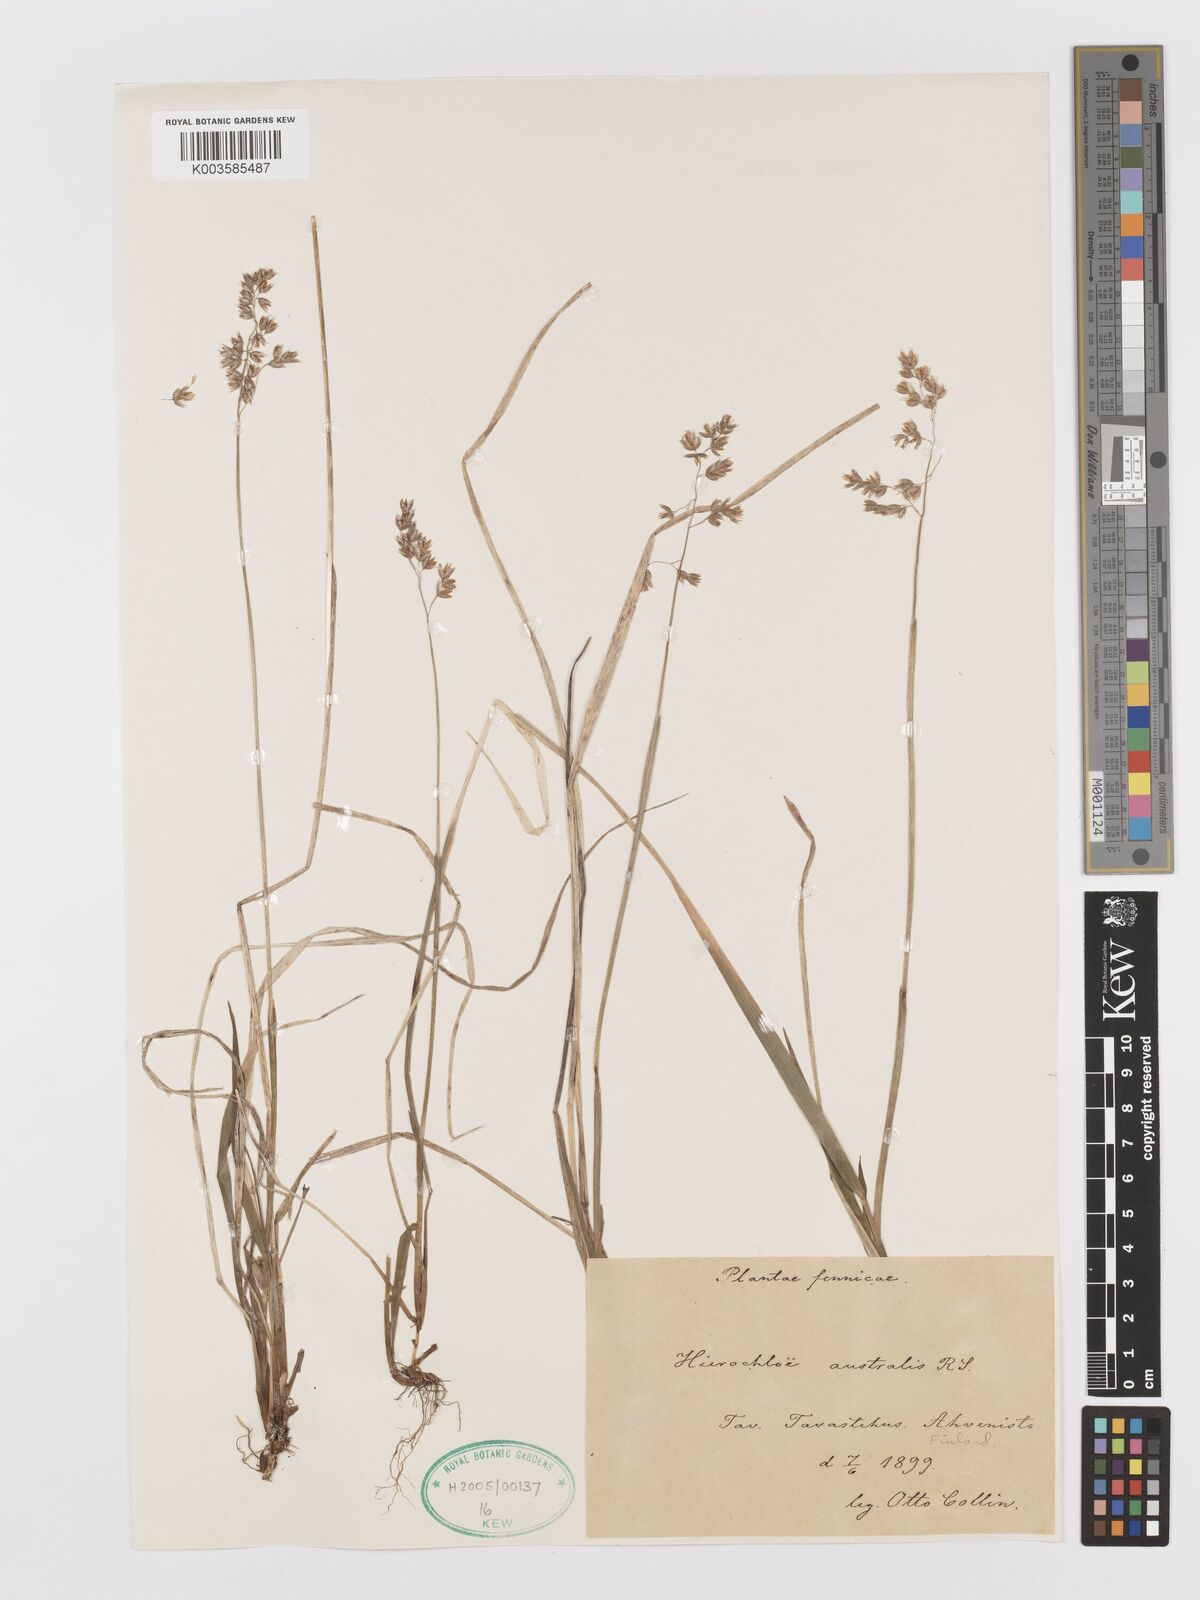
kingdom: Plantae
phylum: Tracheophyta
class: Liliopsida
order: Poales
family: Poaceae
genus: Anthoxanthum
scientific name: Anthoxanthum australe
